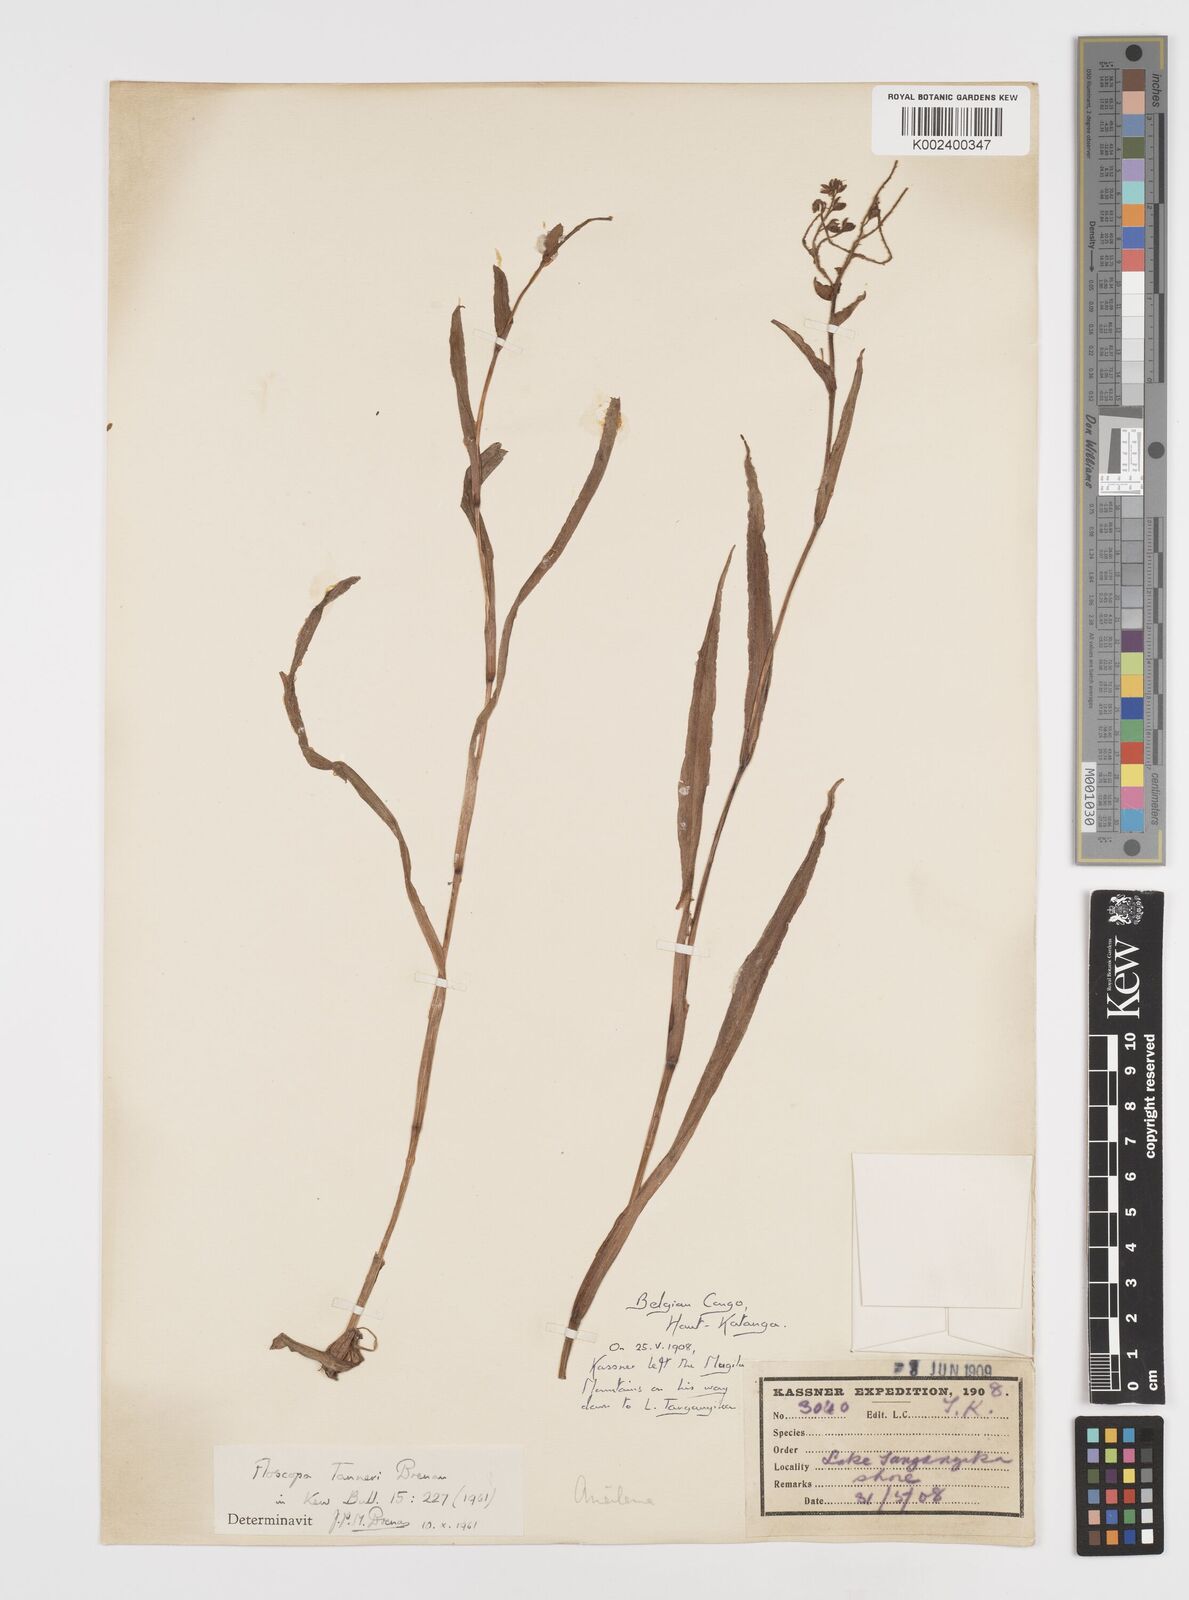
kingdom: Plantae
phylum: Tracheophyta
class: Liliopsida
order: Commelinales
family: Commelinaceae
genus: Floscopa
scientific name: Floscopa tanneri
